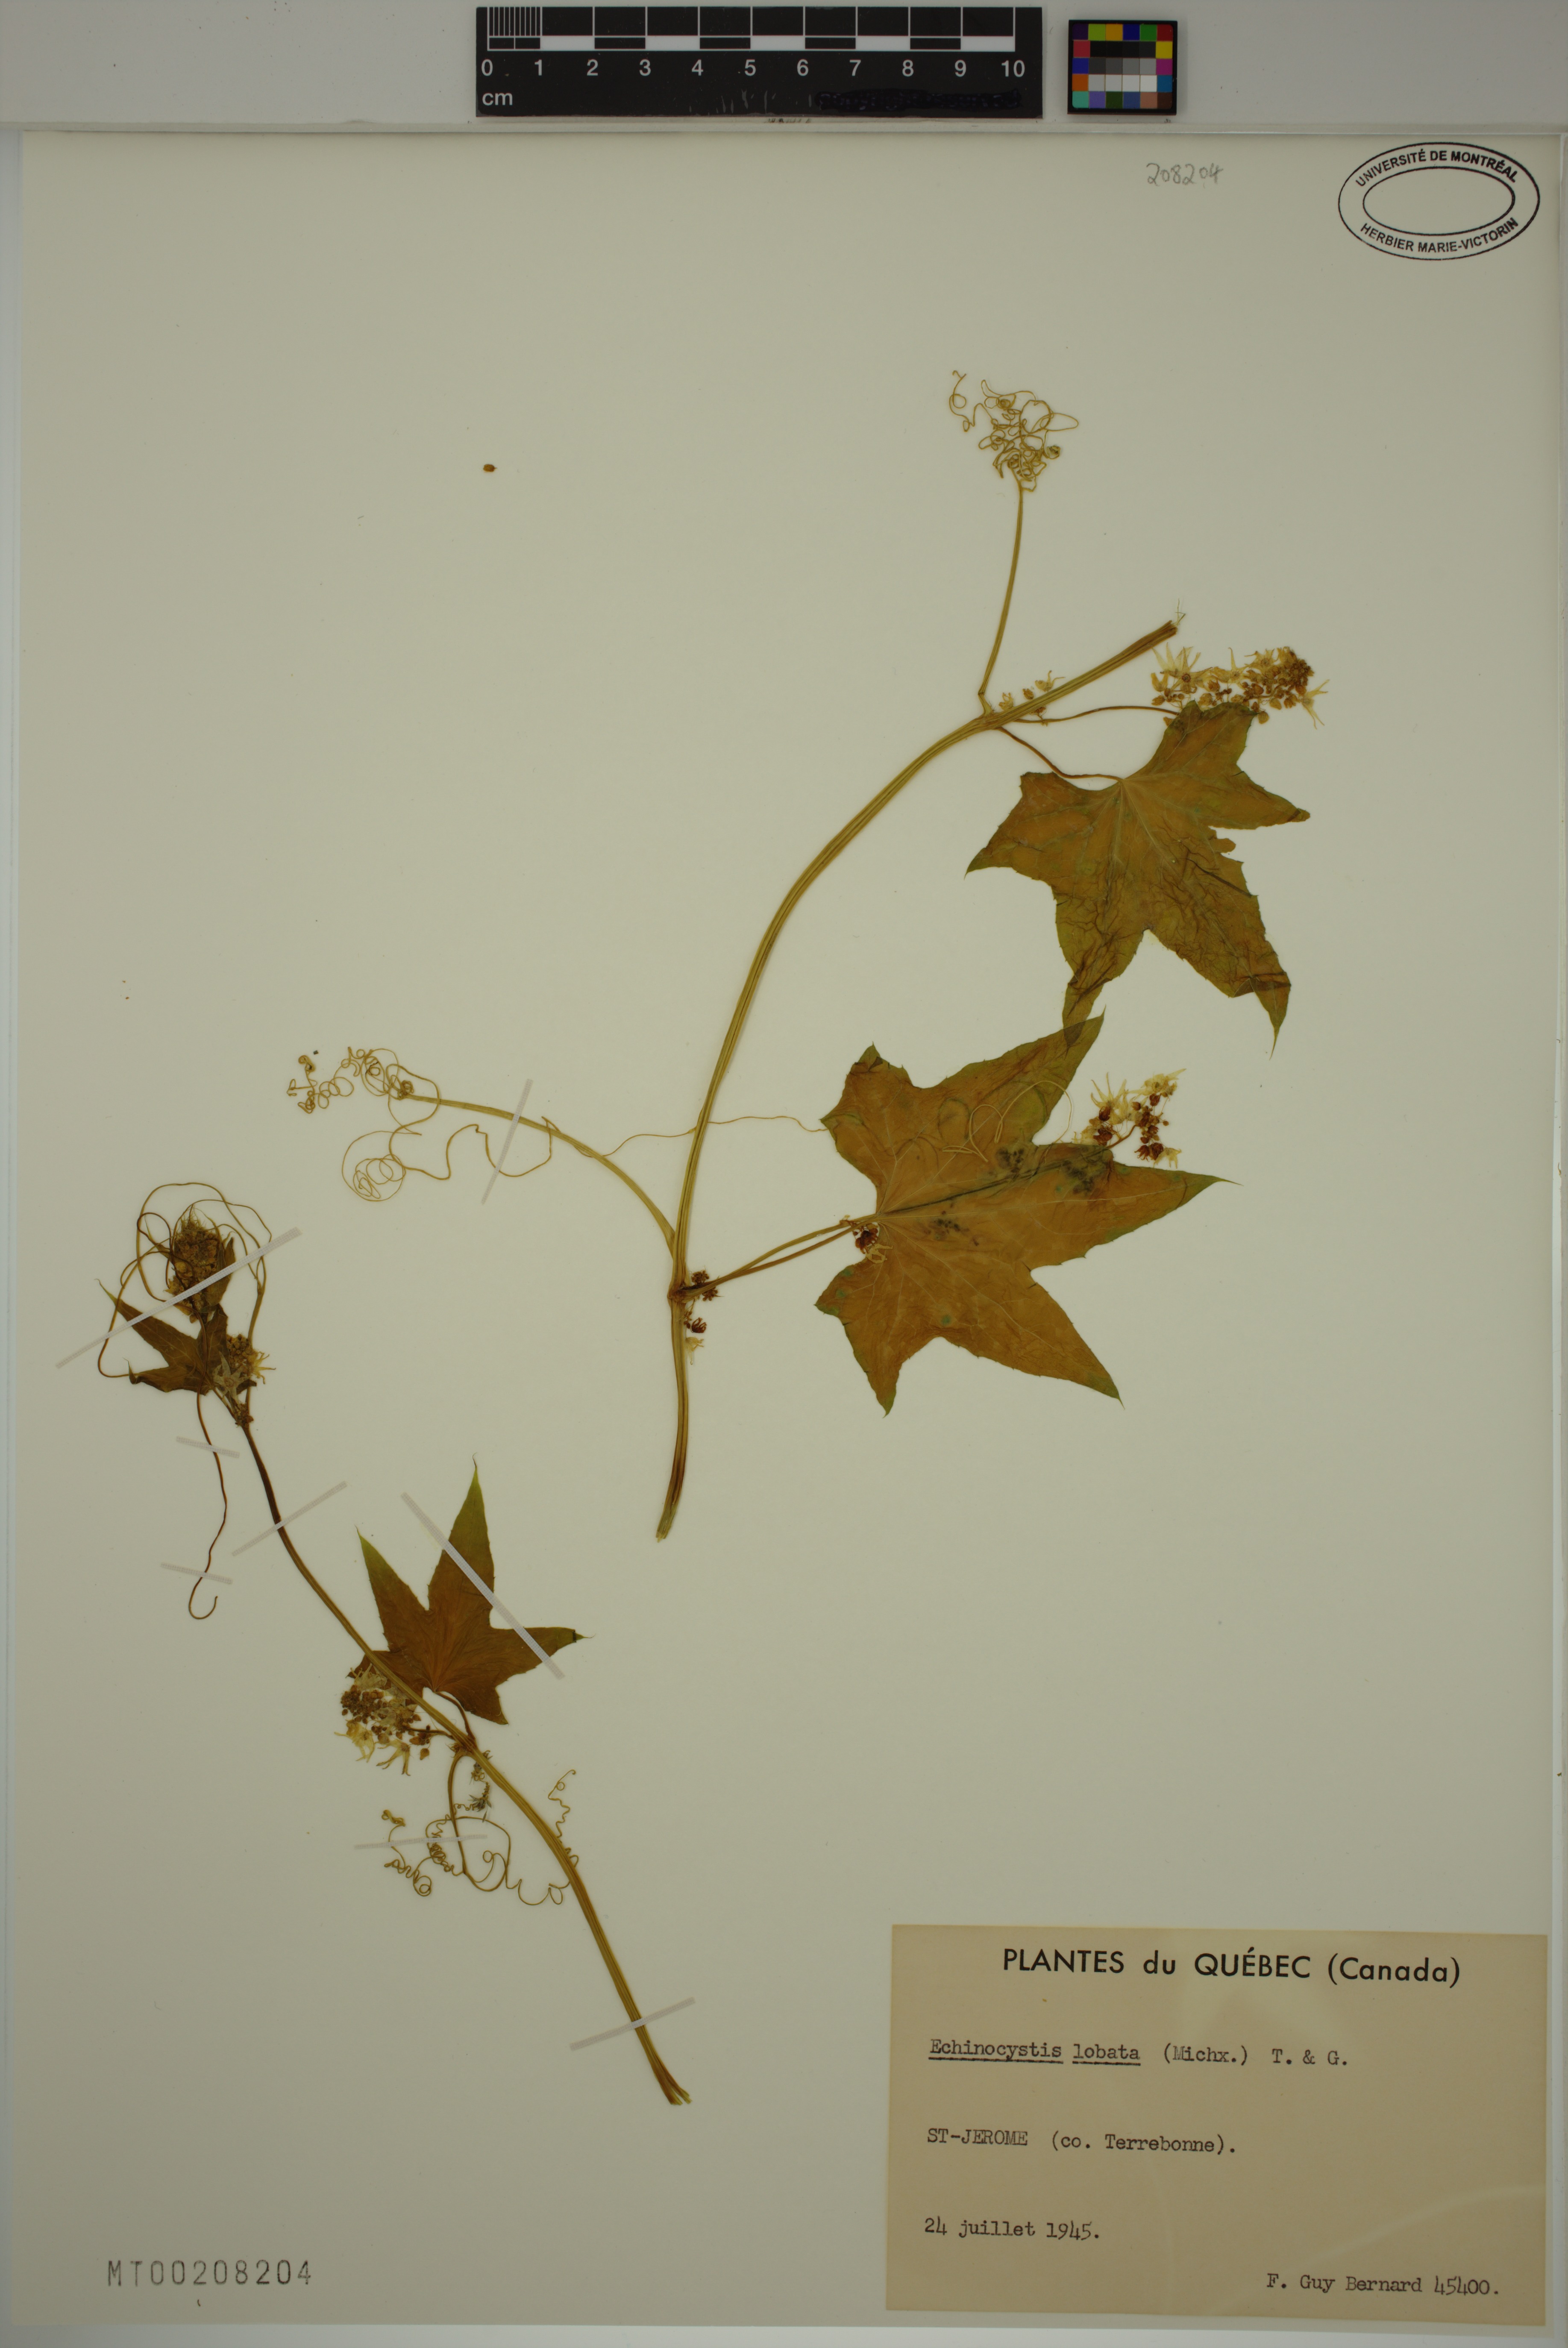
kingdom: Plantae
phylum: Tracheophyta
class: Magnoliopsida
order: Cucurbitales
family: Cucurbitaceae
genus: Echinocystis
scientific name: Echinocystis lobata
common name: Wild cucumber
